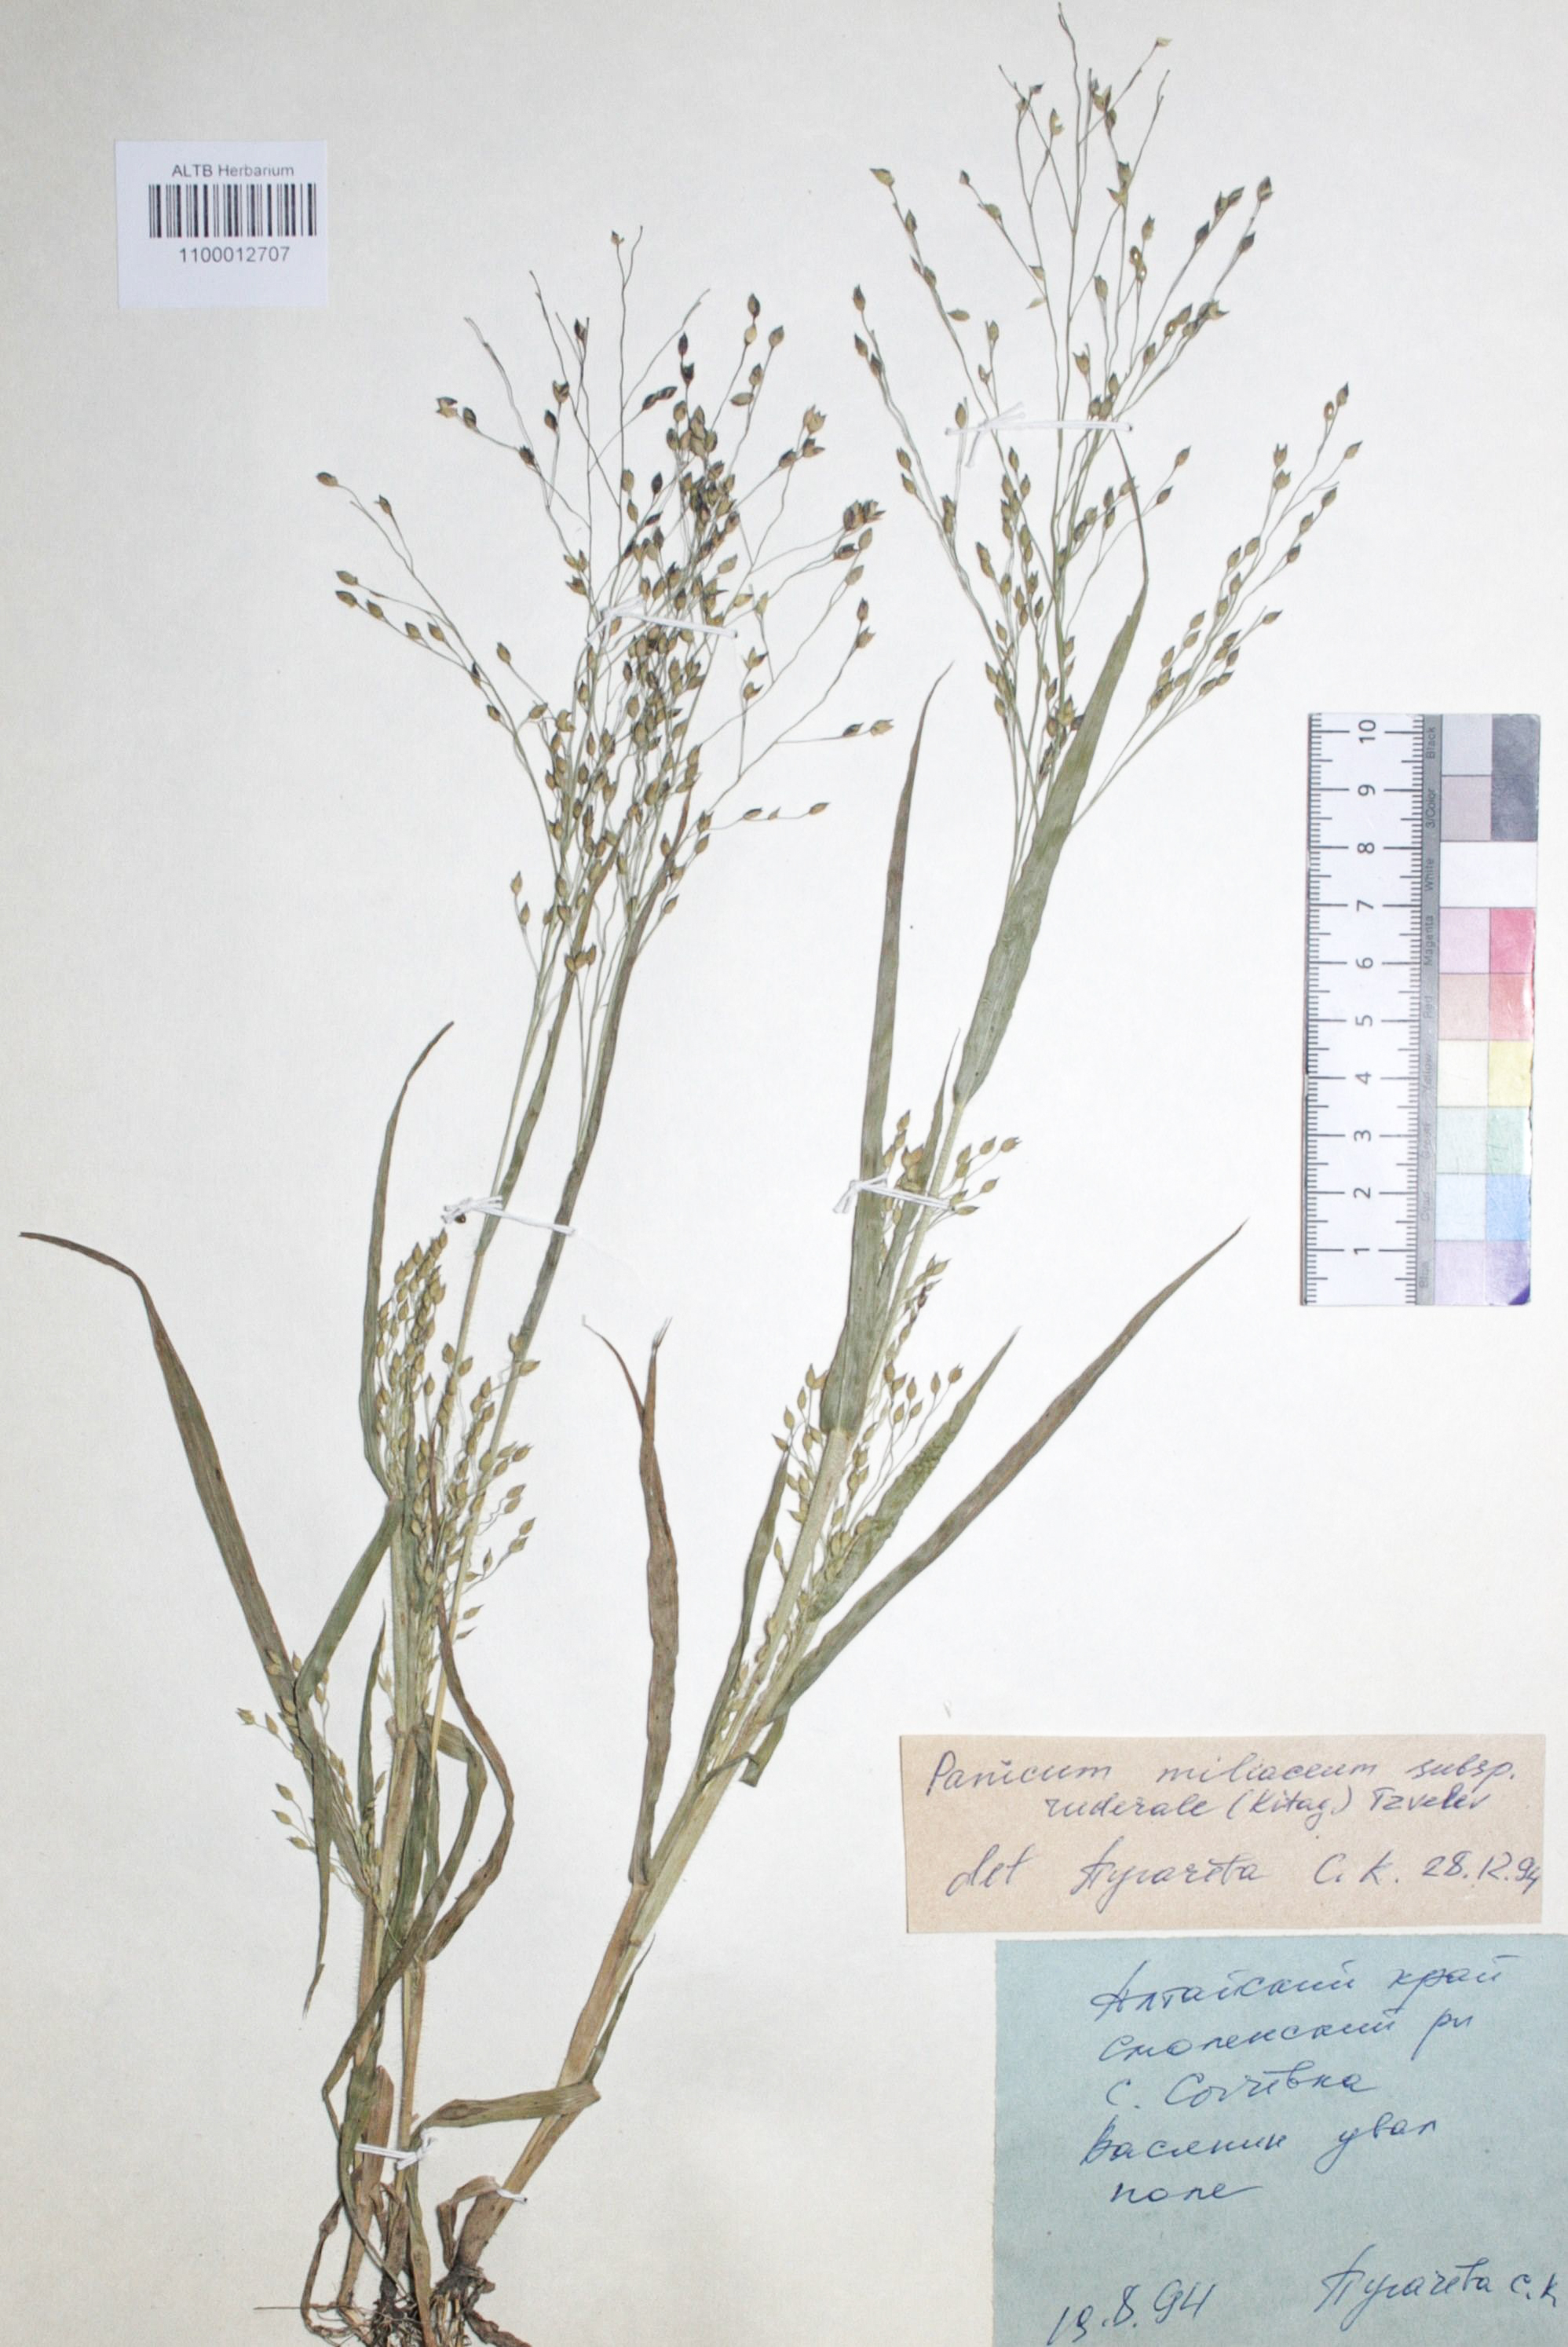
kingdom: Plantae
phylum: Tracheophyta
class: Liliopsida
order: Poales
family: Poaceae
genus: Panicum
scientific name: Panicum miliaceum
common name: Common millet
